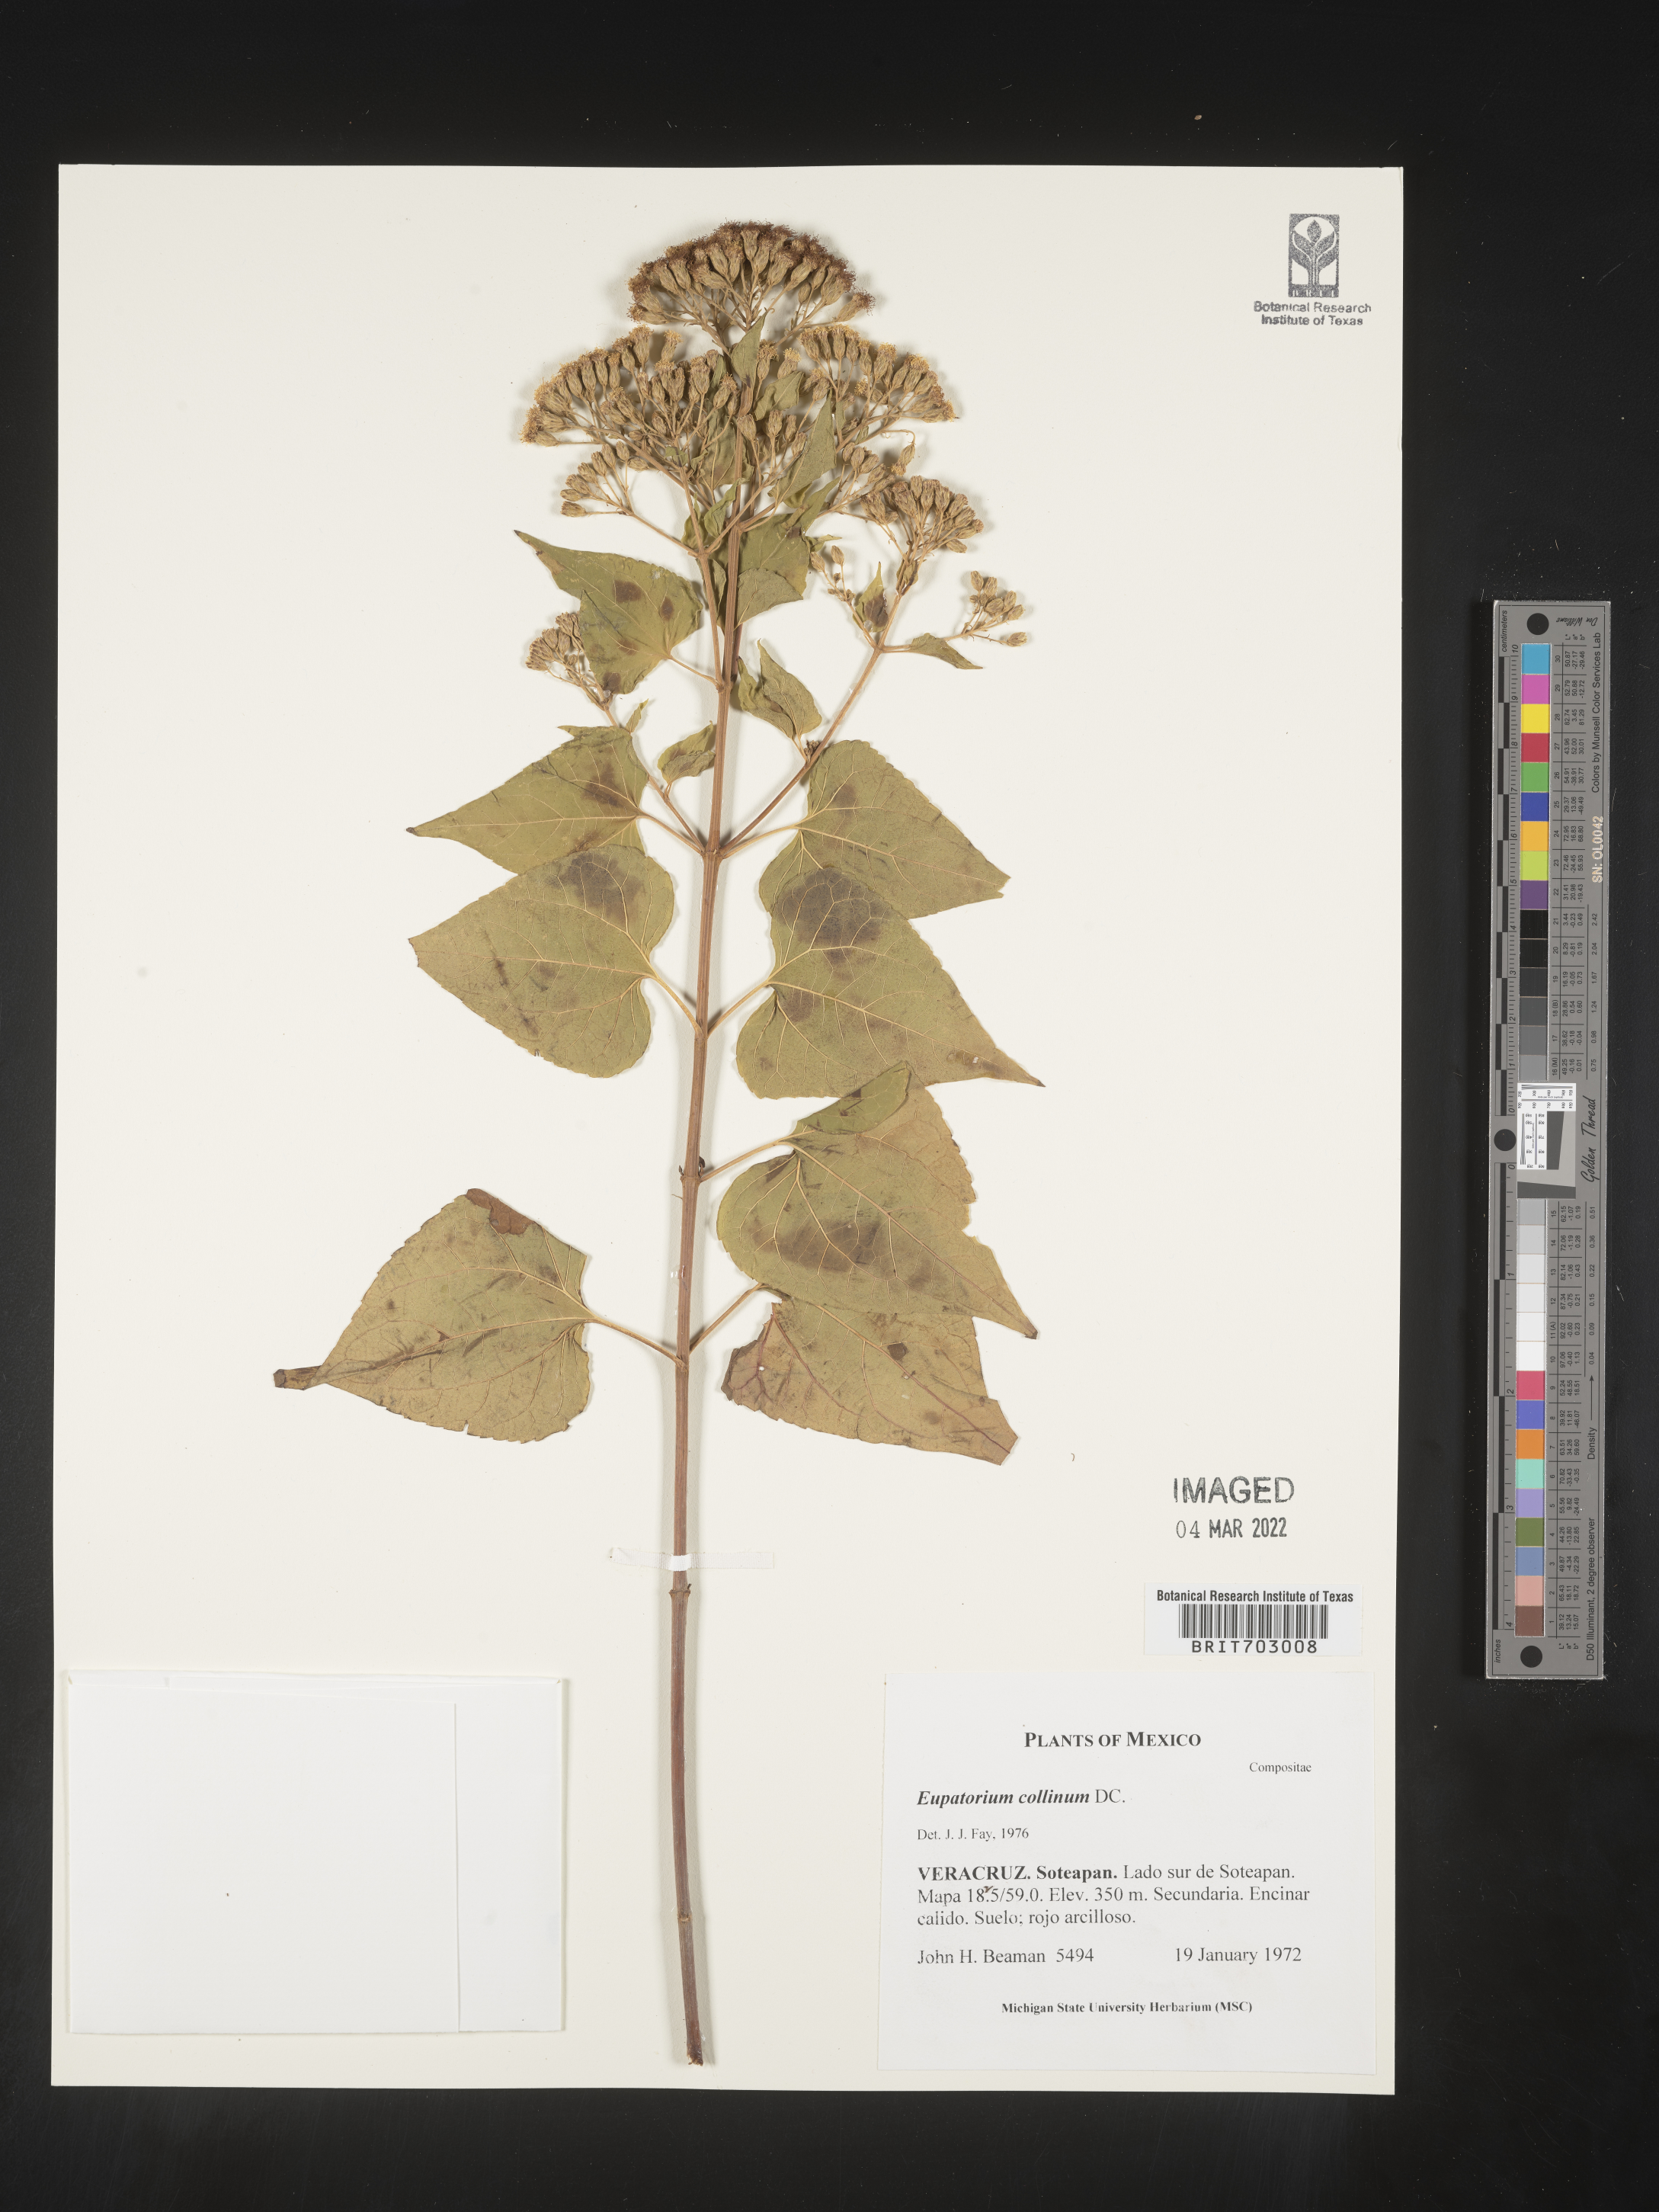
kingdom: Plantae
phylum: Tracheophyta
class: Magnoliopsida
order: Asterales
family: Asteraceae
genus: Eupatorium
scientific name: Eupatorium
